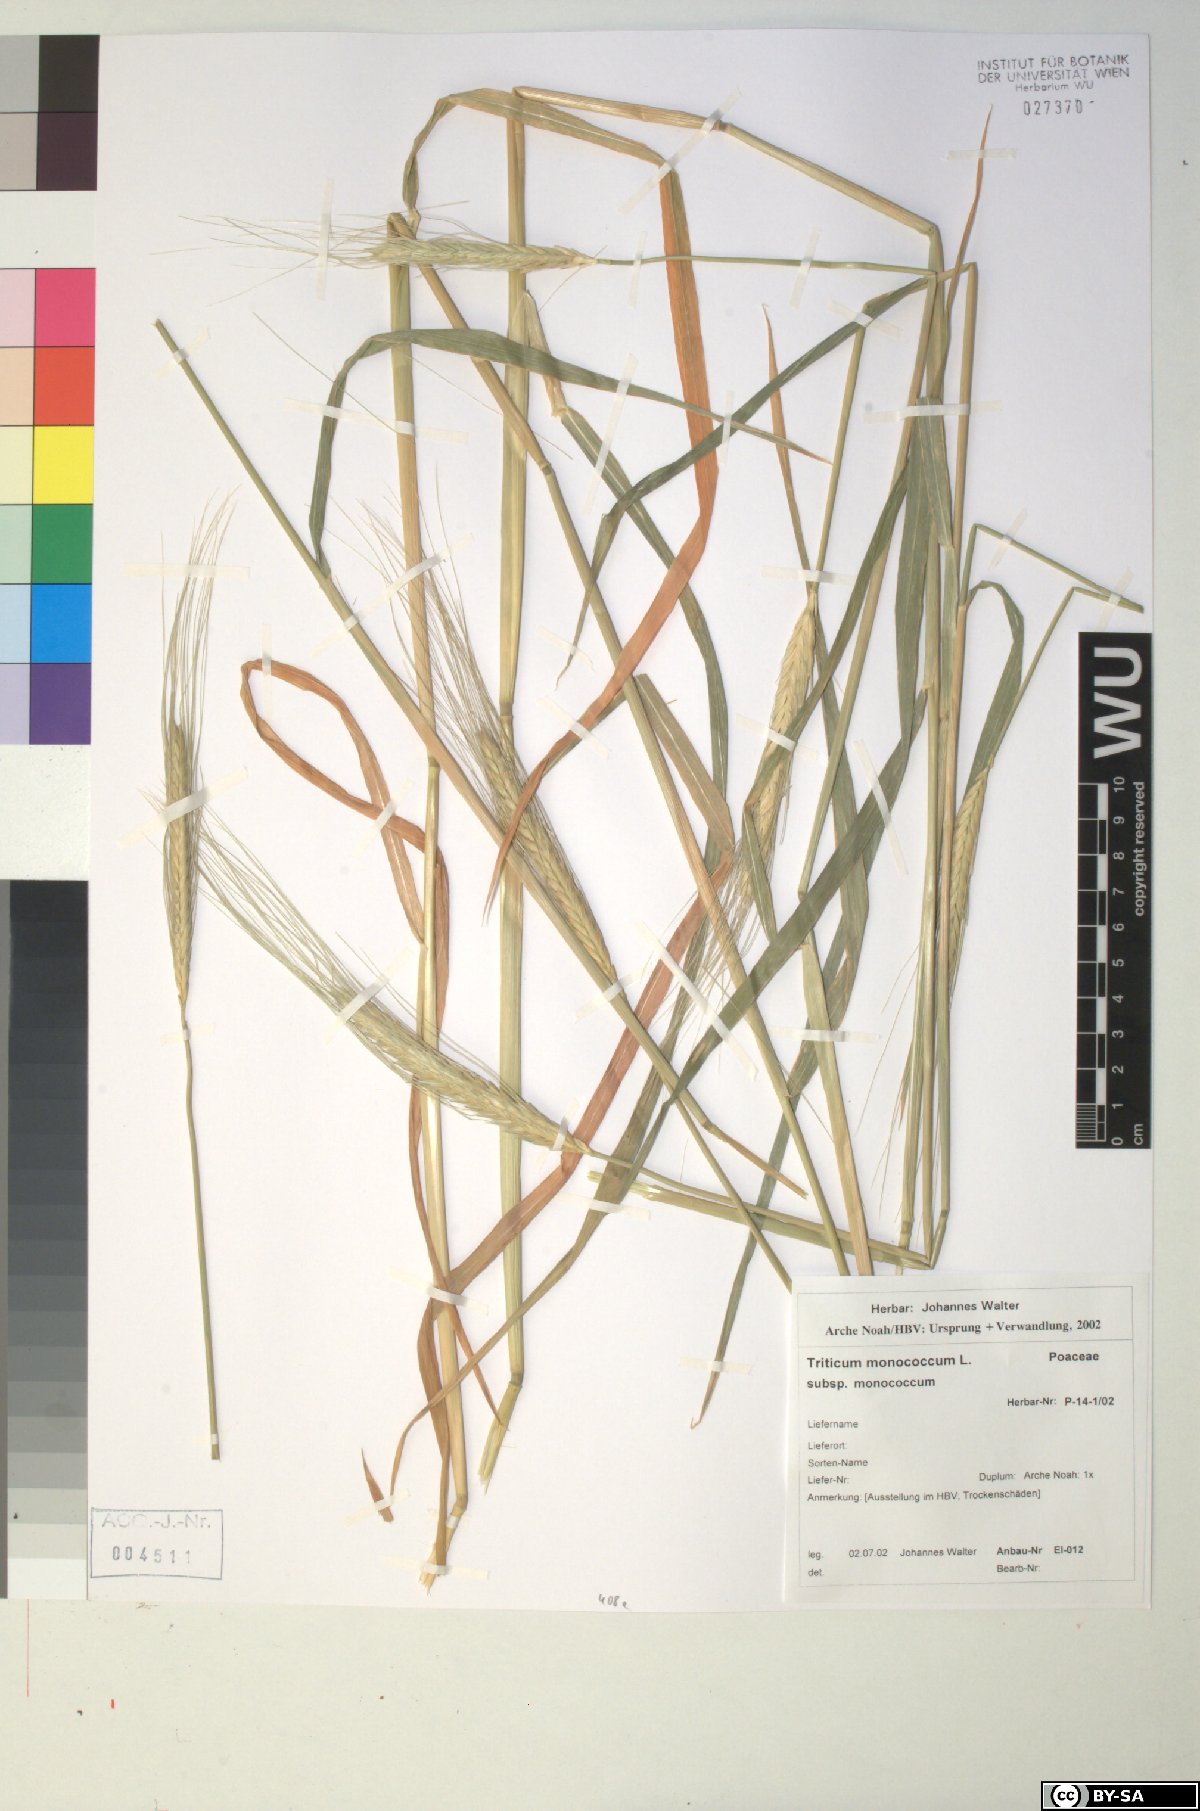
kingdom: Plantae
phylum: Tracheophyta
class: Liliopsida
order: Poales
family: Poaceae
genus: Triticum
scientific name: Triticum monococcum
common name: Einkorn
